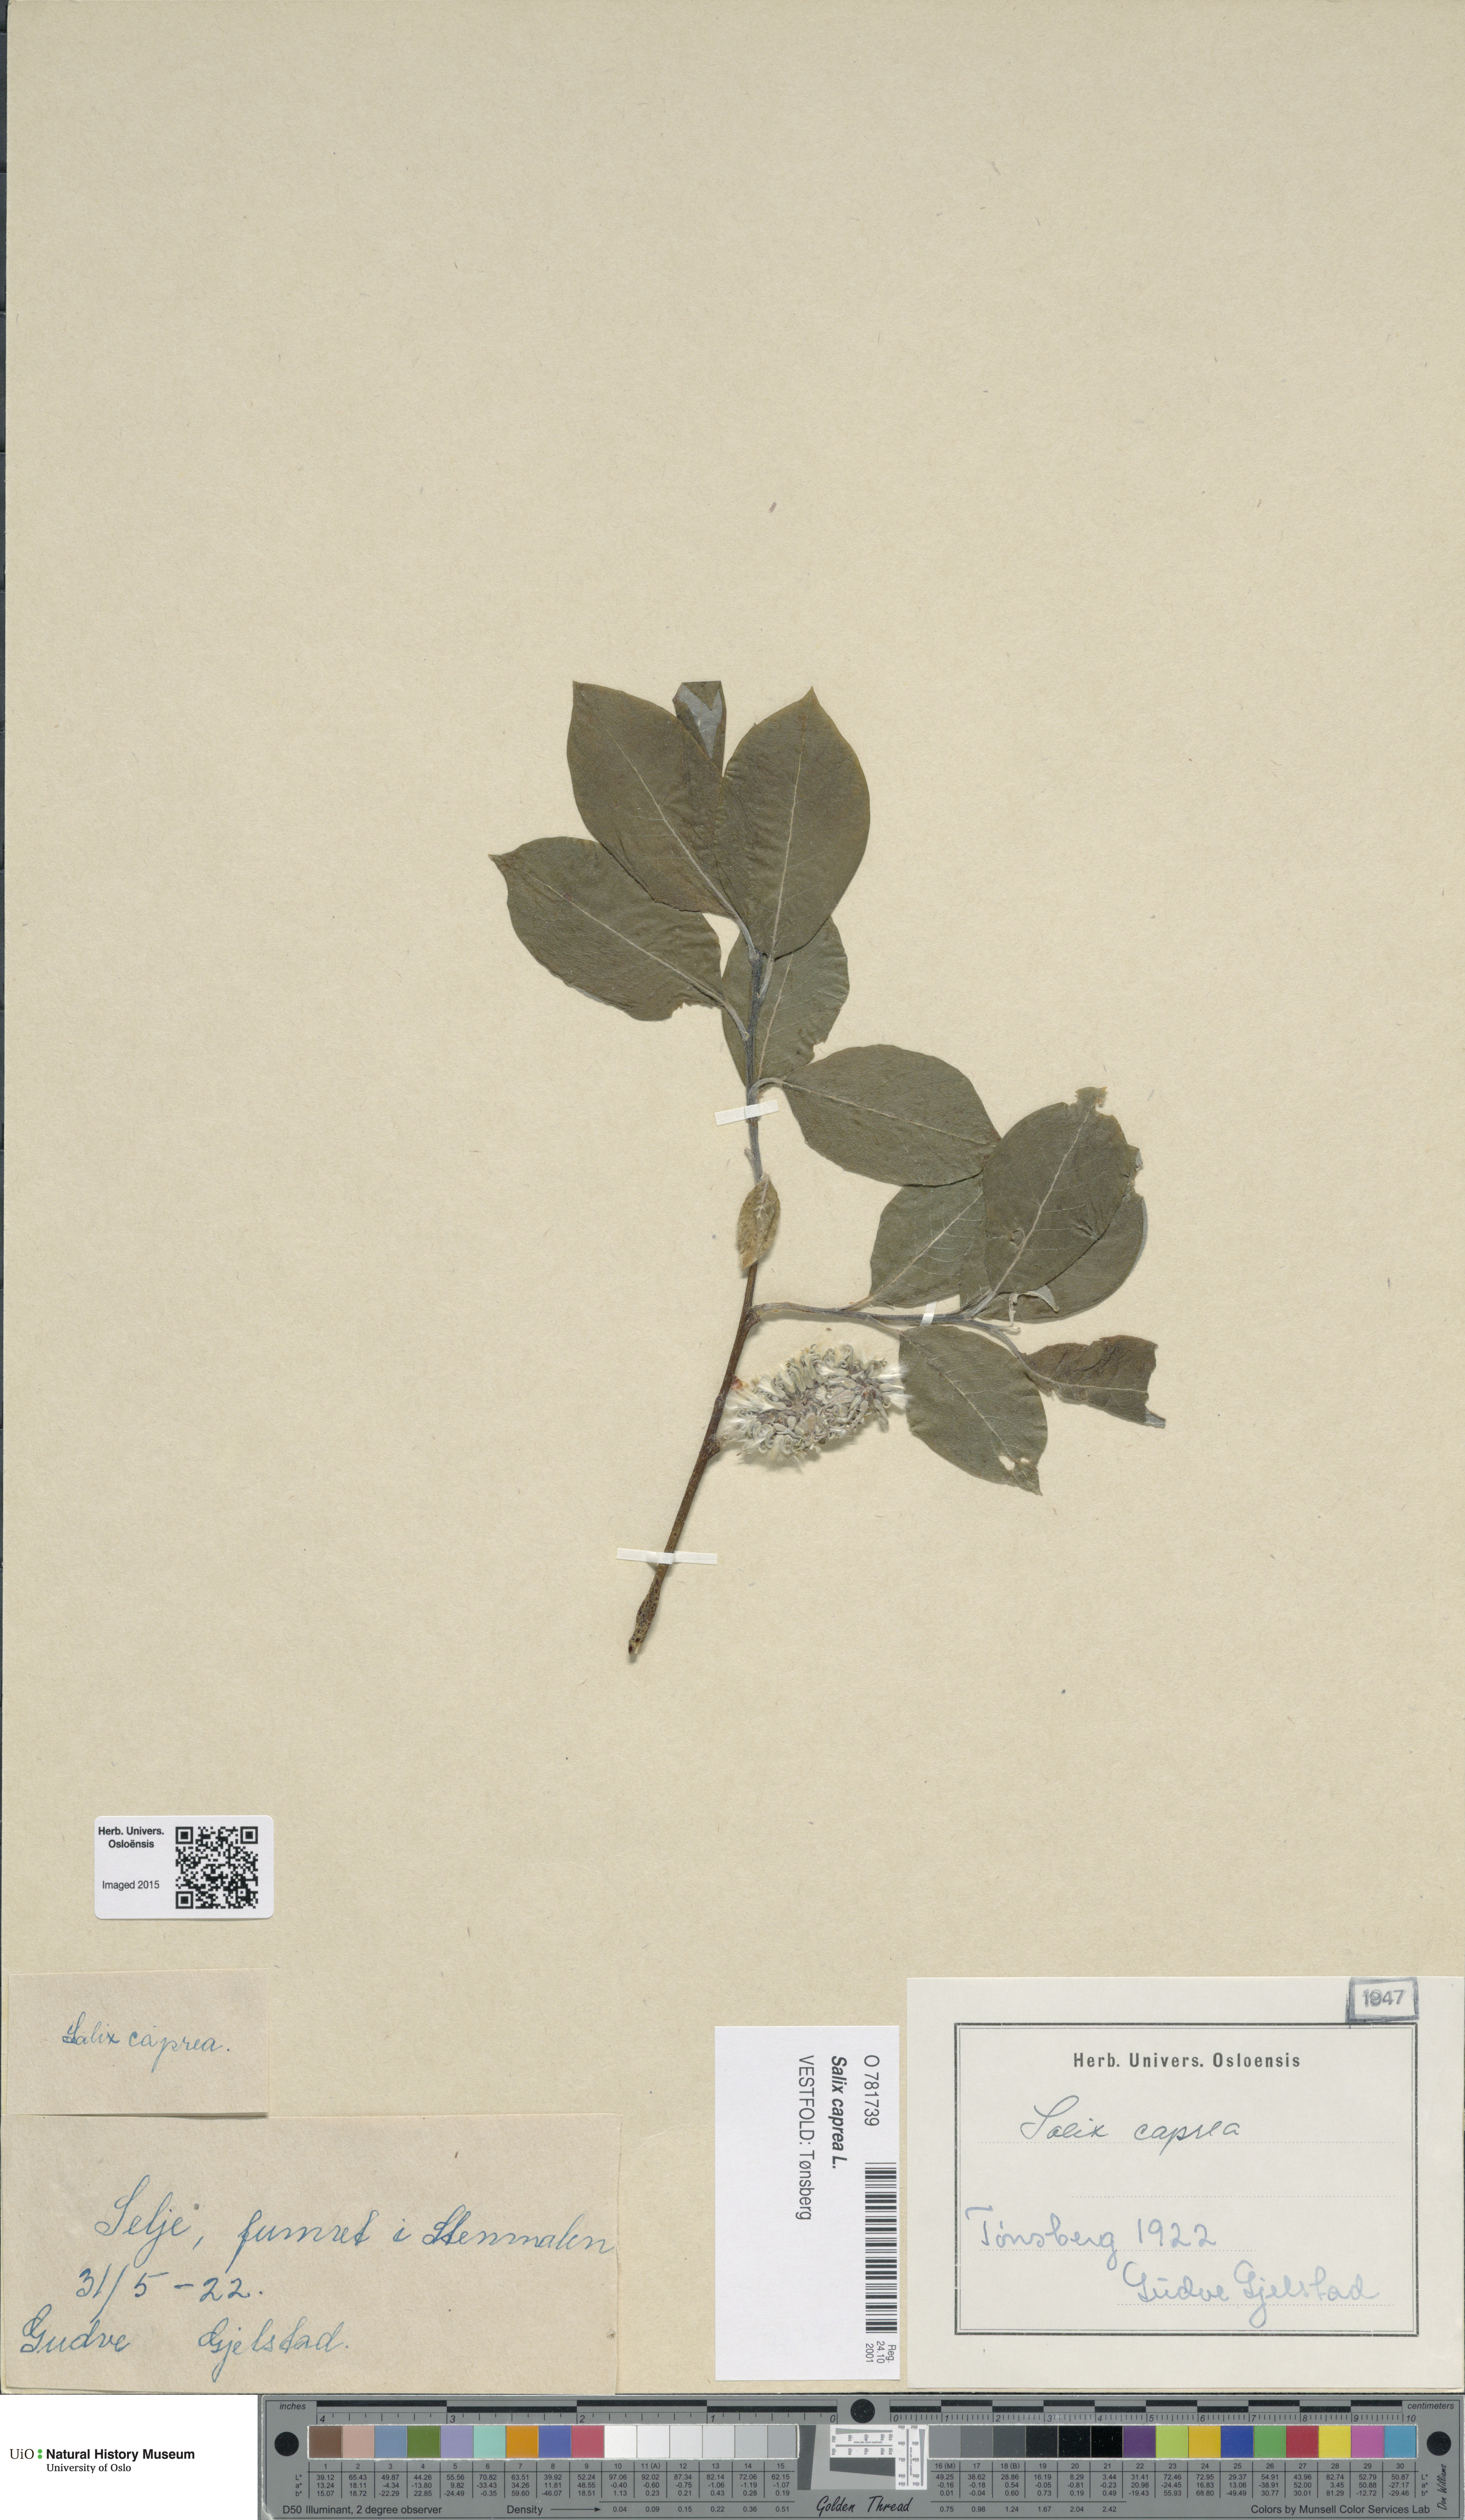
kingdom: Plantae
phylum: Tracheophyta
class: Magnoliopsida
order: Malpighiales
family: Salicaceae
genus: Salix
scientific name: Salix caprea
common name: Goat willow
